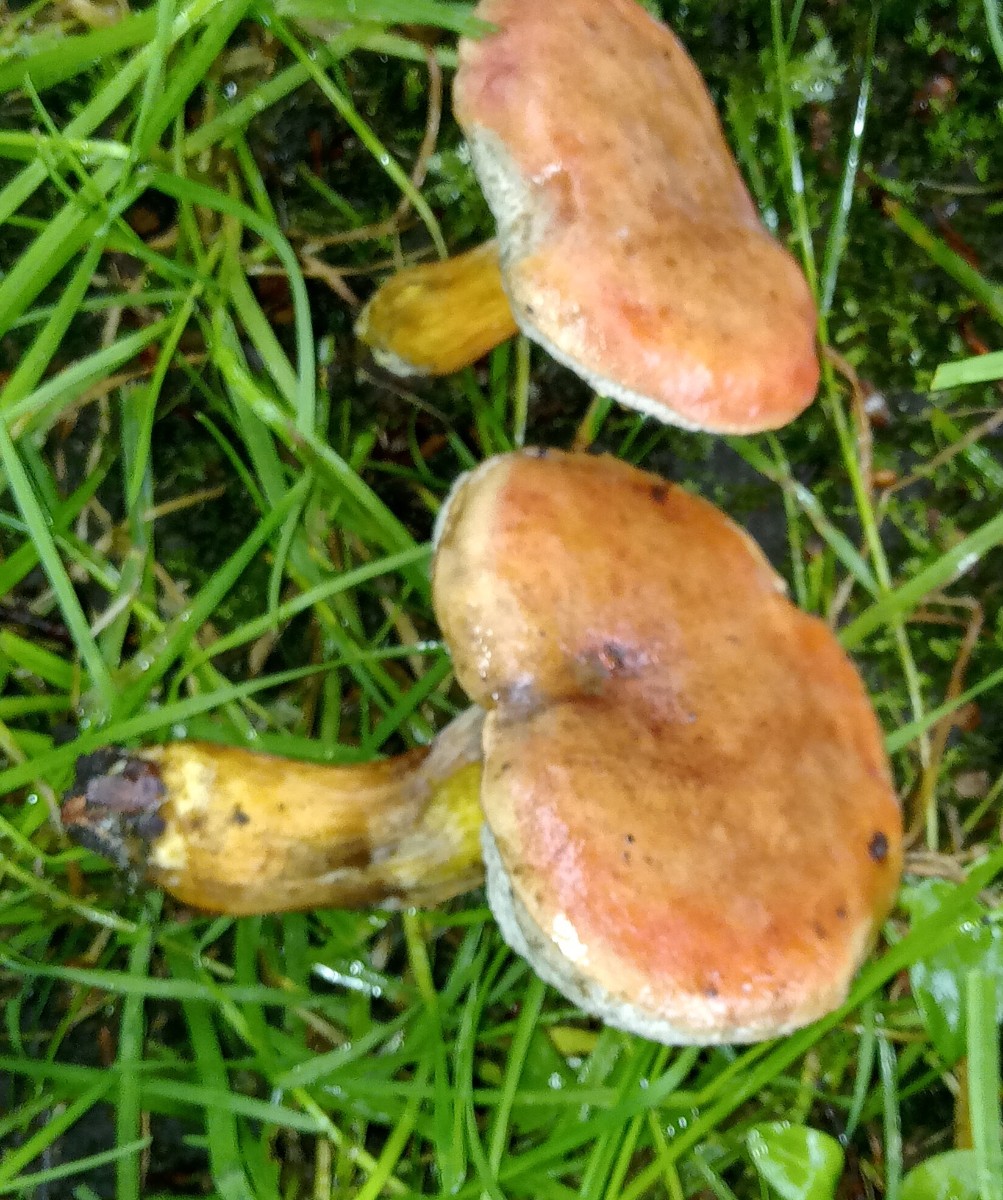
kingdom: Fungi
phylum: Basidiomycota
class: Agaricomycetes
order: Boletales
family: Boletaceae
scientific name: Boletaceae
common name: rørhatfamilien
